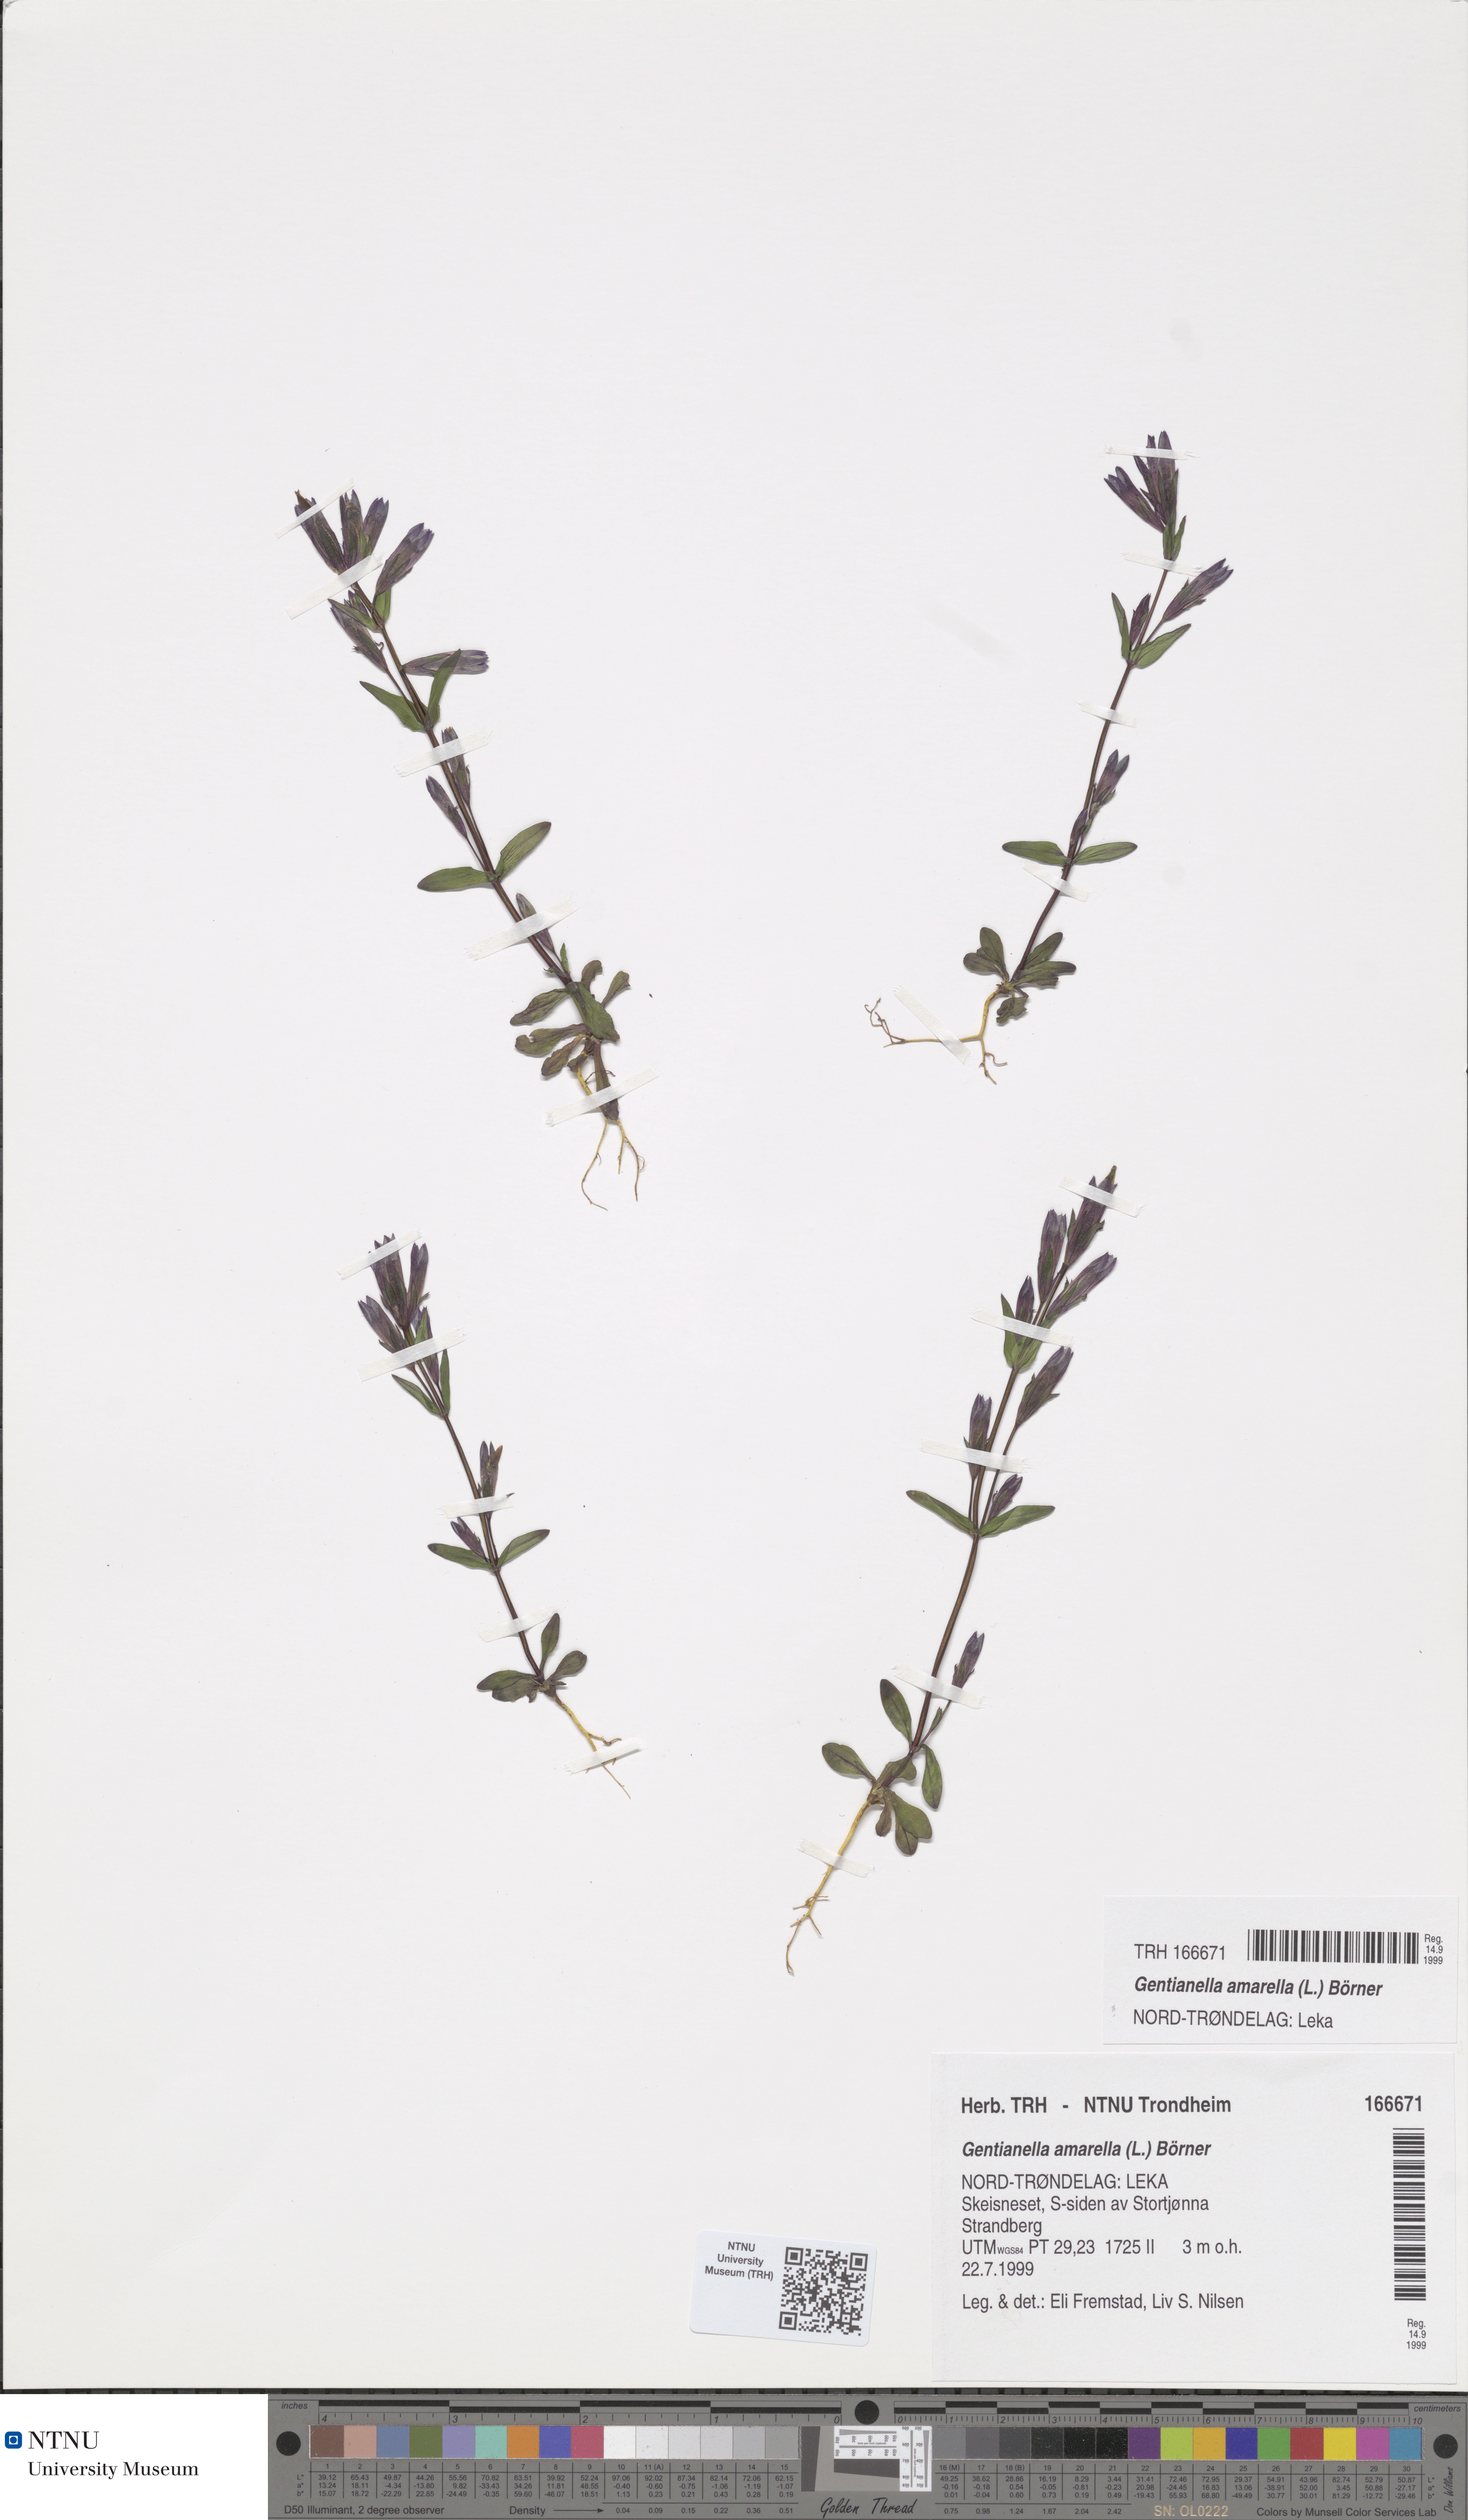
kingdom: Plantae
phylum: Tracheophyta
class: Magnoliopsida
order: Gentianales
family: Gentianaceae
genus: Gentianella
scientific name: Gentianella amarella
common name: Autumn gentian
